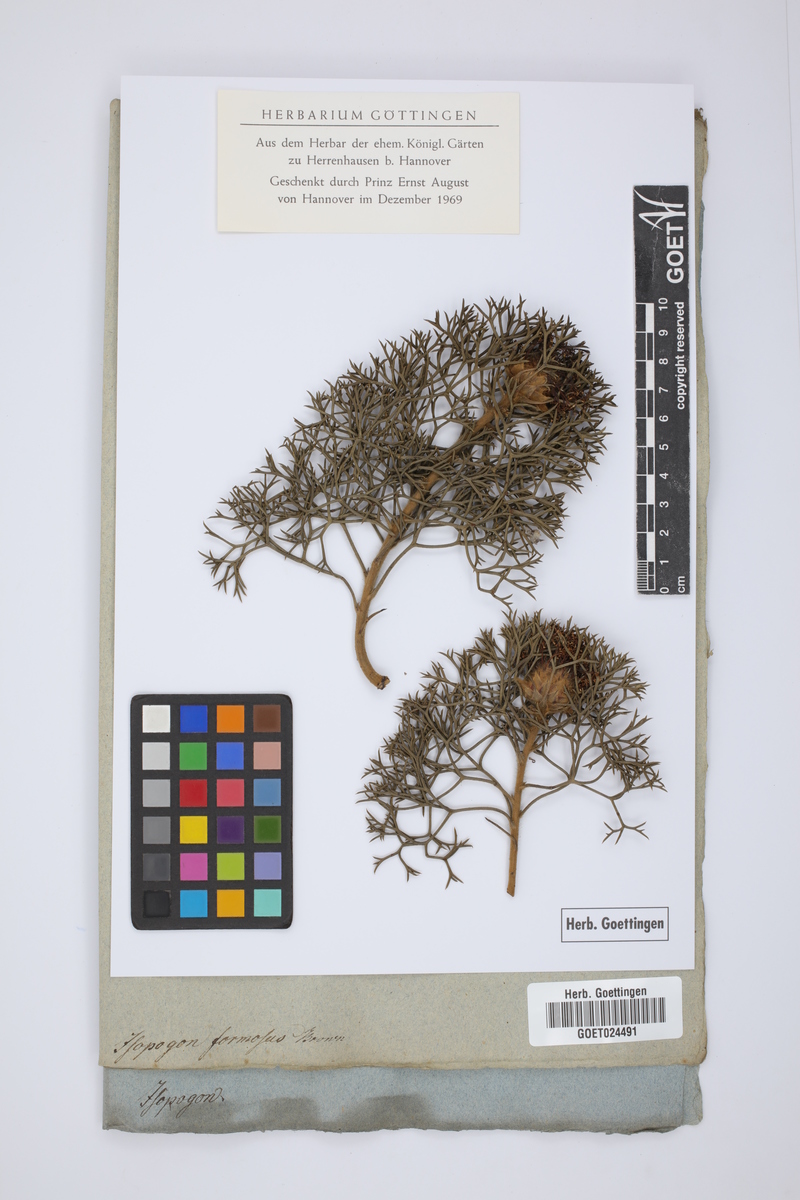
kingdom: Plantae
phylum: Tracheophyta
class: Magnoliopsida
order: Proteales
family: Proteaceae
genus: Isopogon
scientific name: Isopogon formosus
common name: Rose-coneflower
